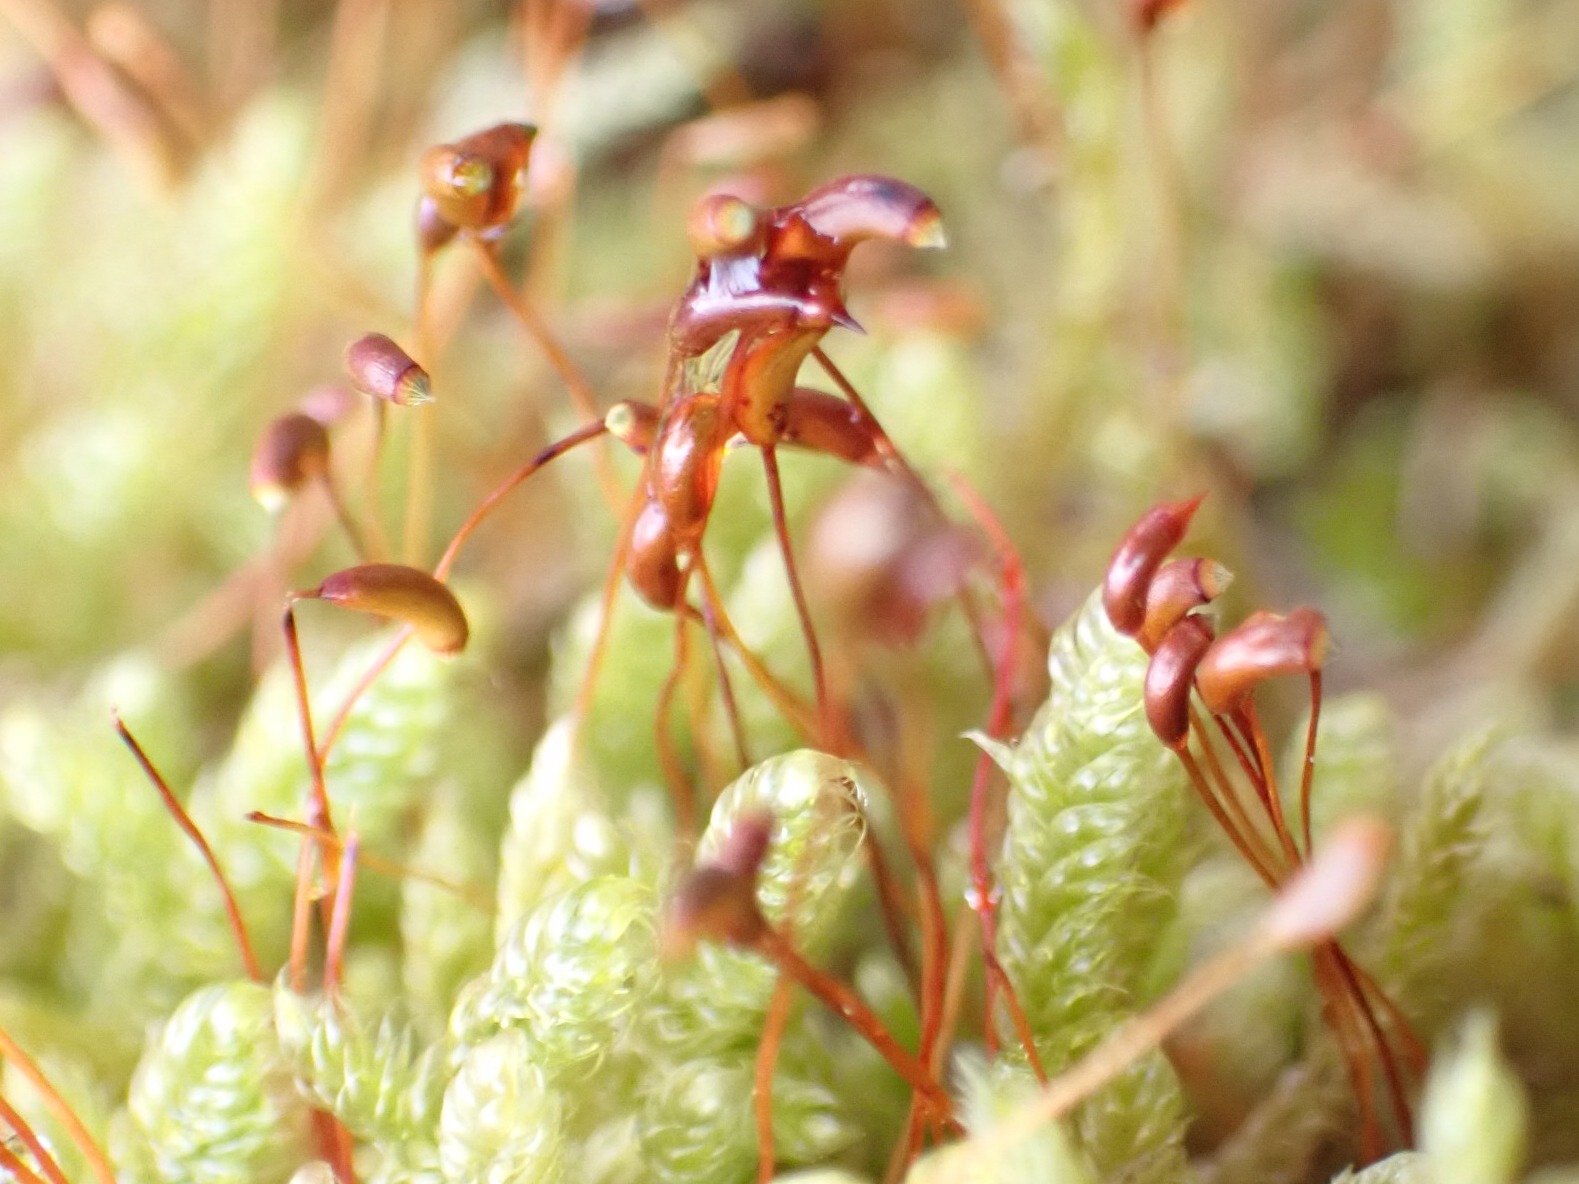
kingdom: Plantae
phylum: Bryophyta
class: Bryopsida
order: Hypnales
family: Hypnaceae
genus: Hypnum
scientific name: Hypnum cupressiforme
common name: Almindelig cypresmos
